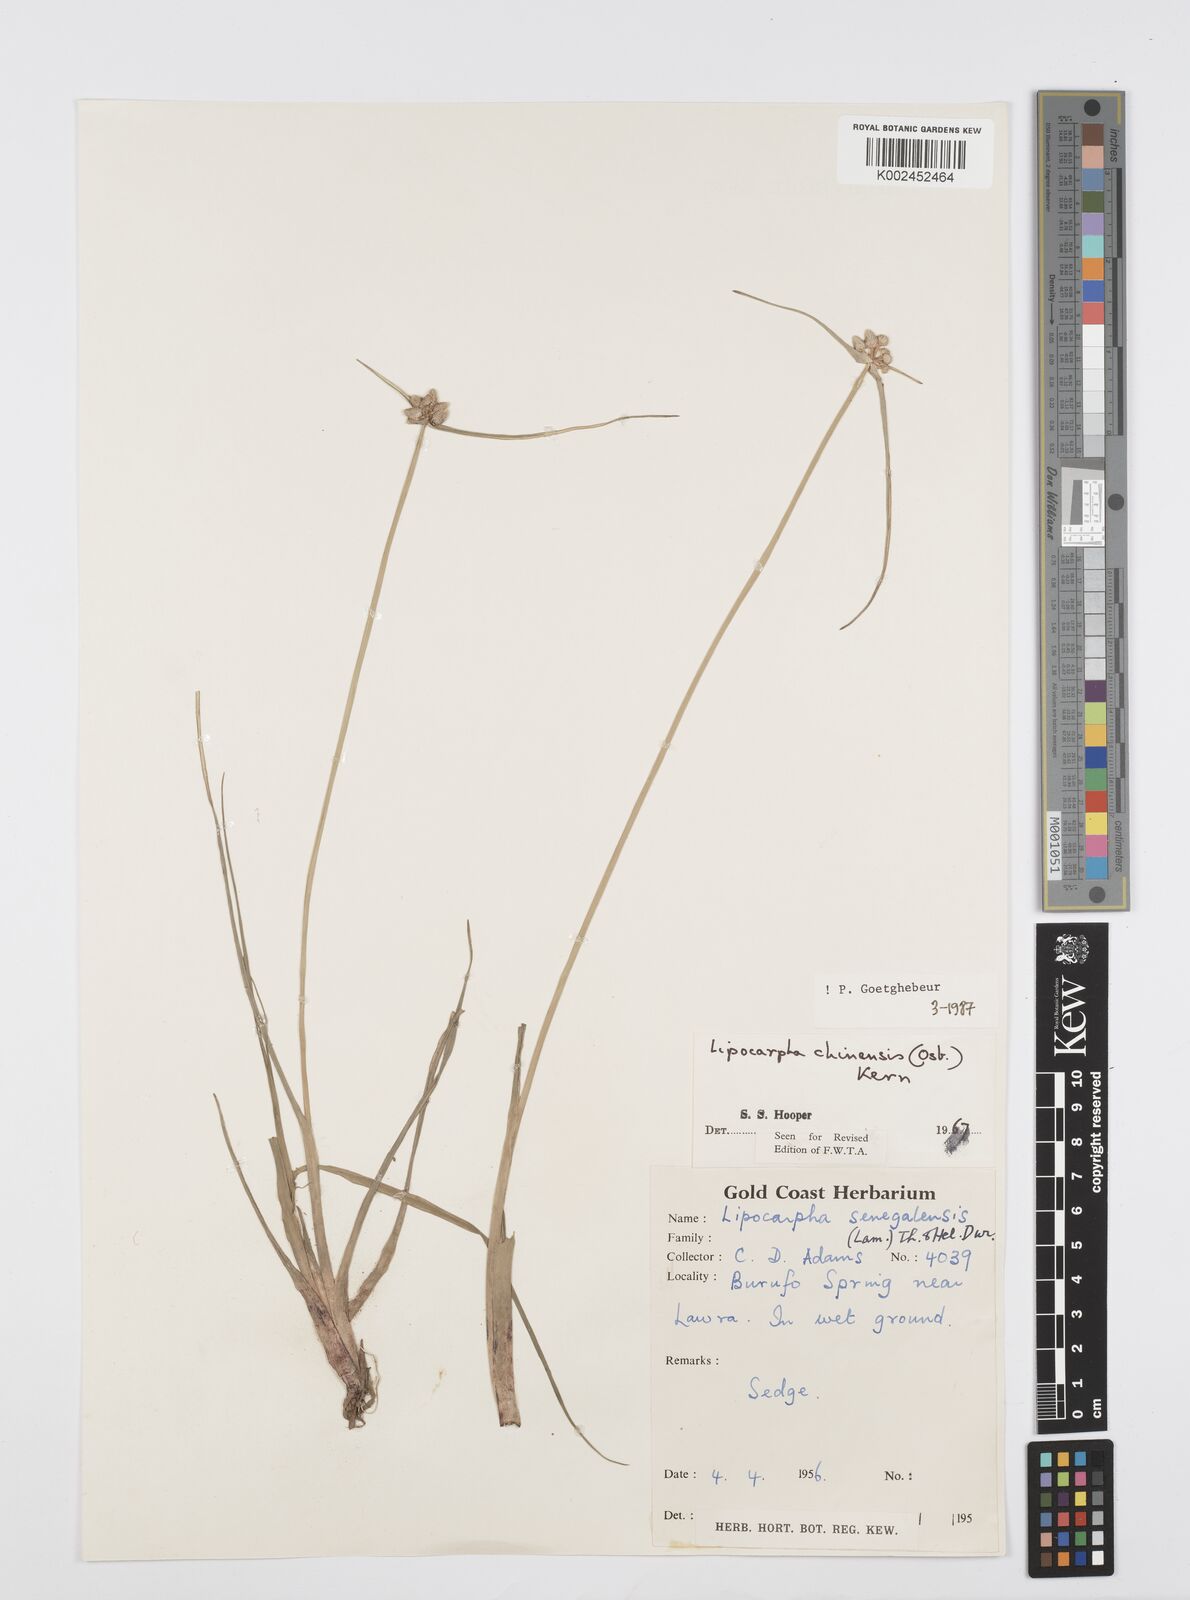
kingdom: Plantae
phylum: Tracheophyta
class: Liliopsida
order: Poales
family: Cyperaceae
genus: Cyperus
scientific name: Cyperus albescens
